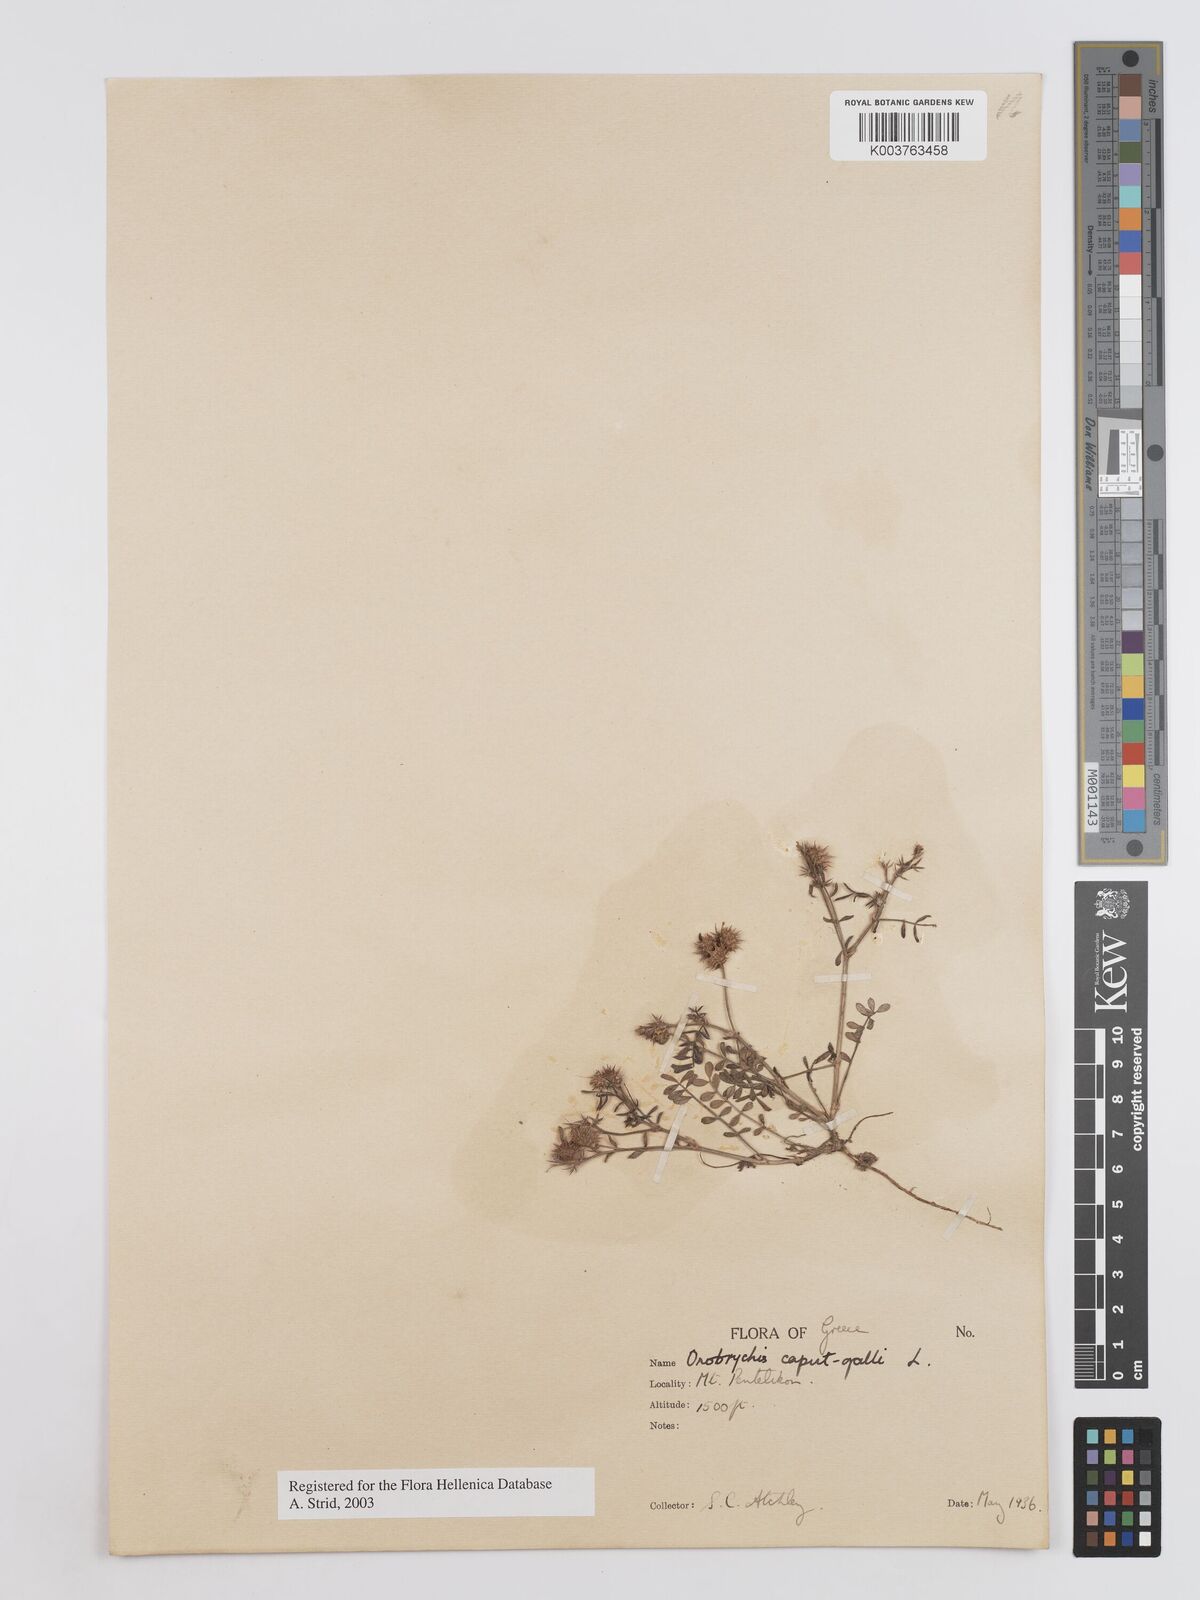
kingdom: Plantae
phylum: Tracheophyta
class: Magnoliopsida
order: Fabales
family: Fabaceae
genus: Onobrychis
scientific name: Onobrychis caput-galli
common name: Cockscomb sainfoin
